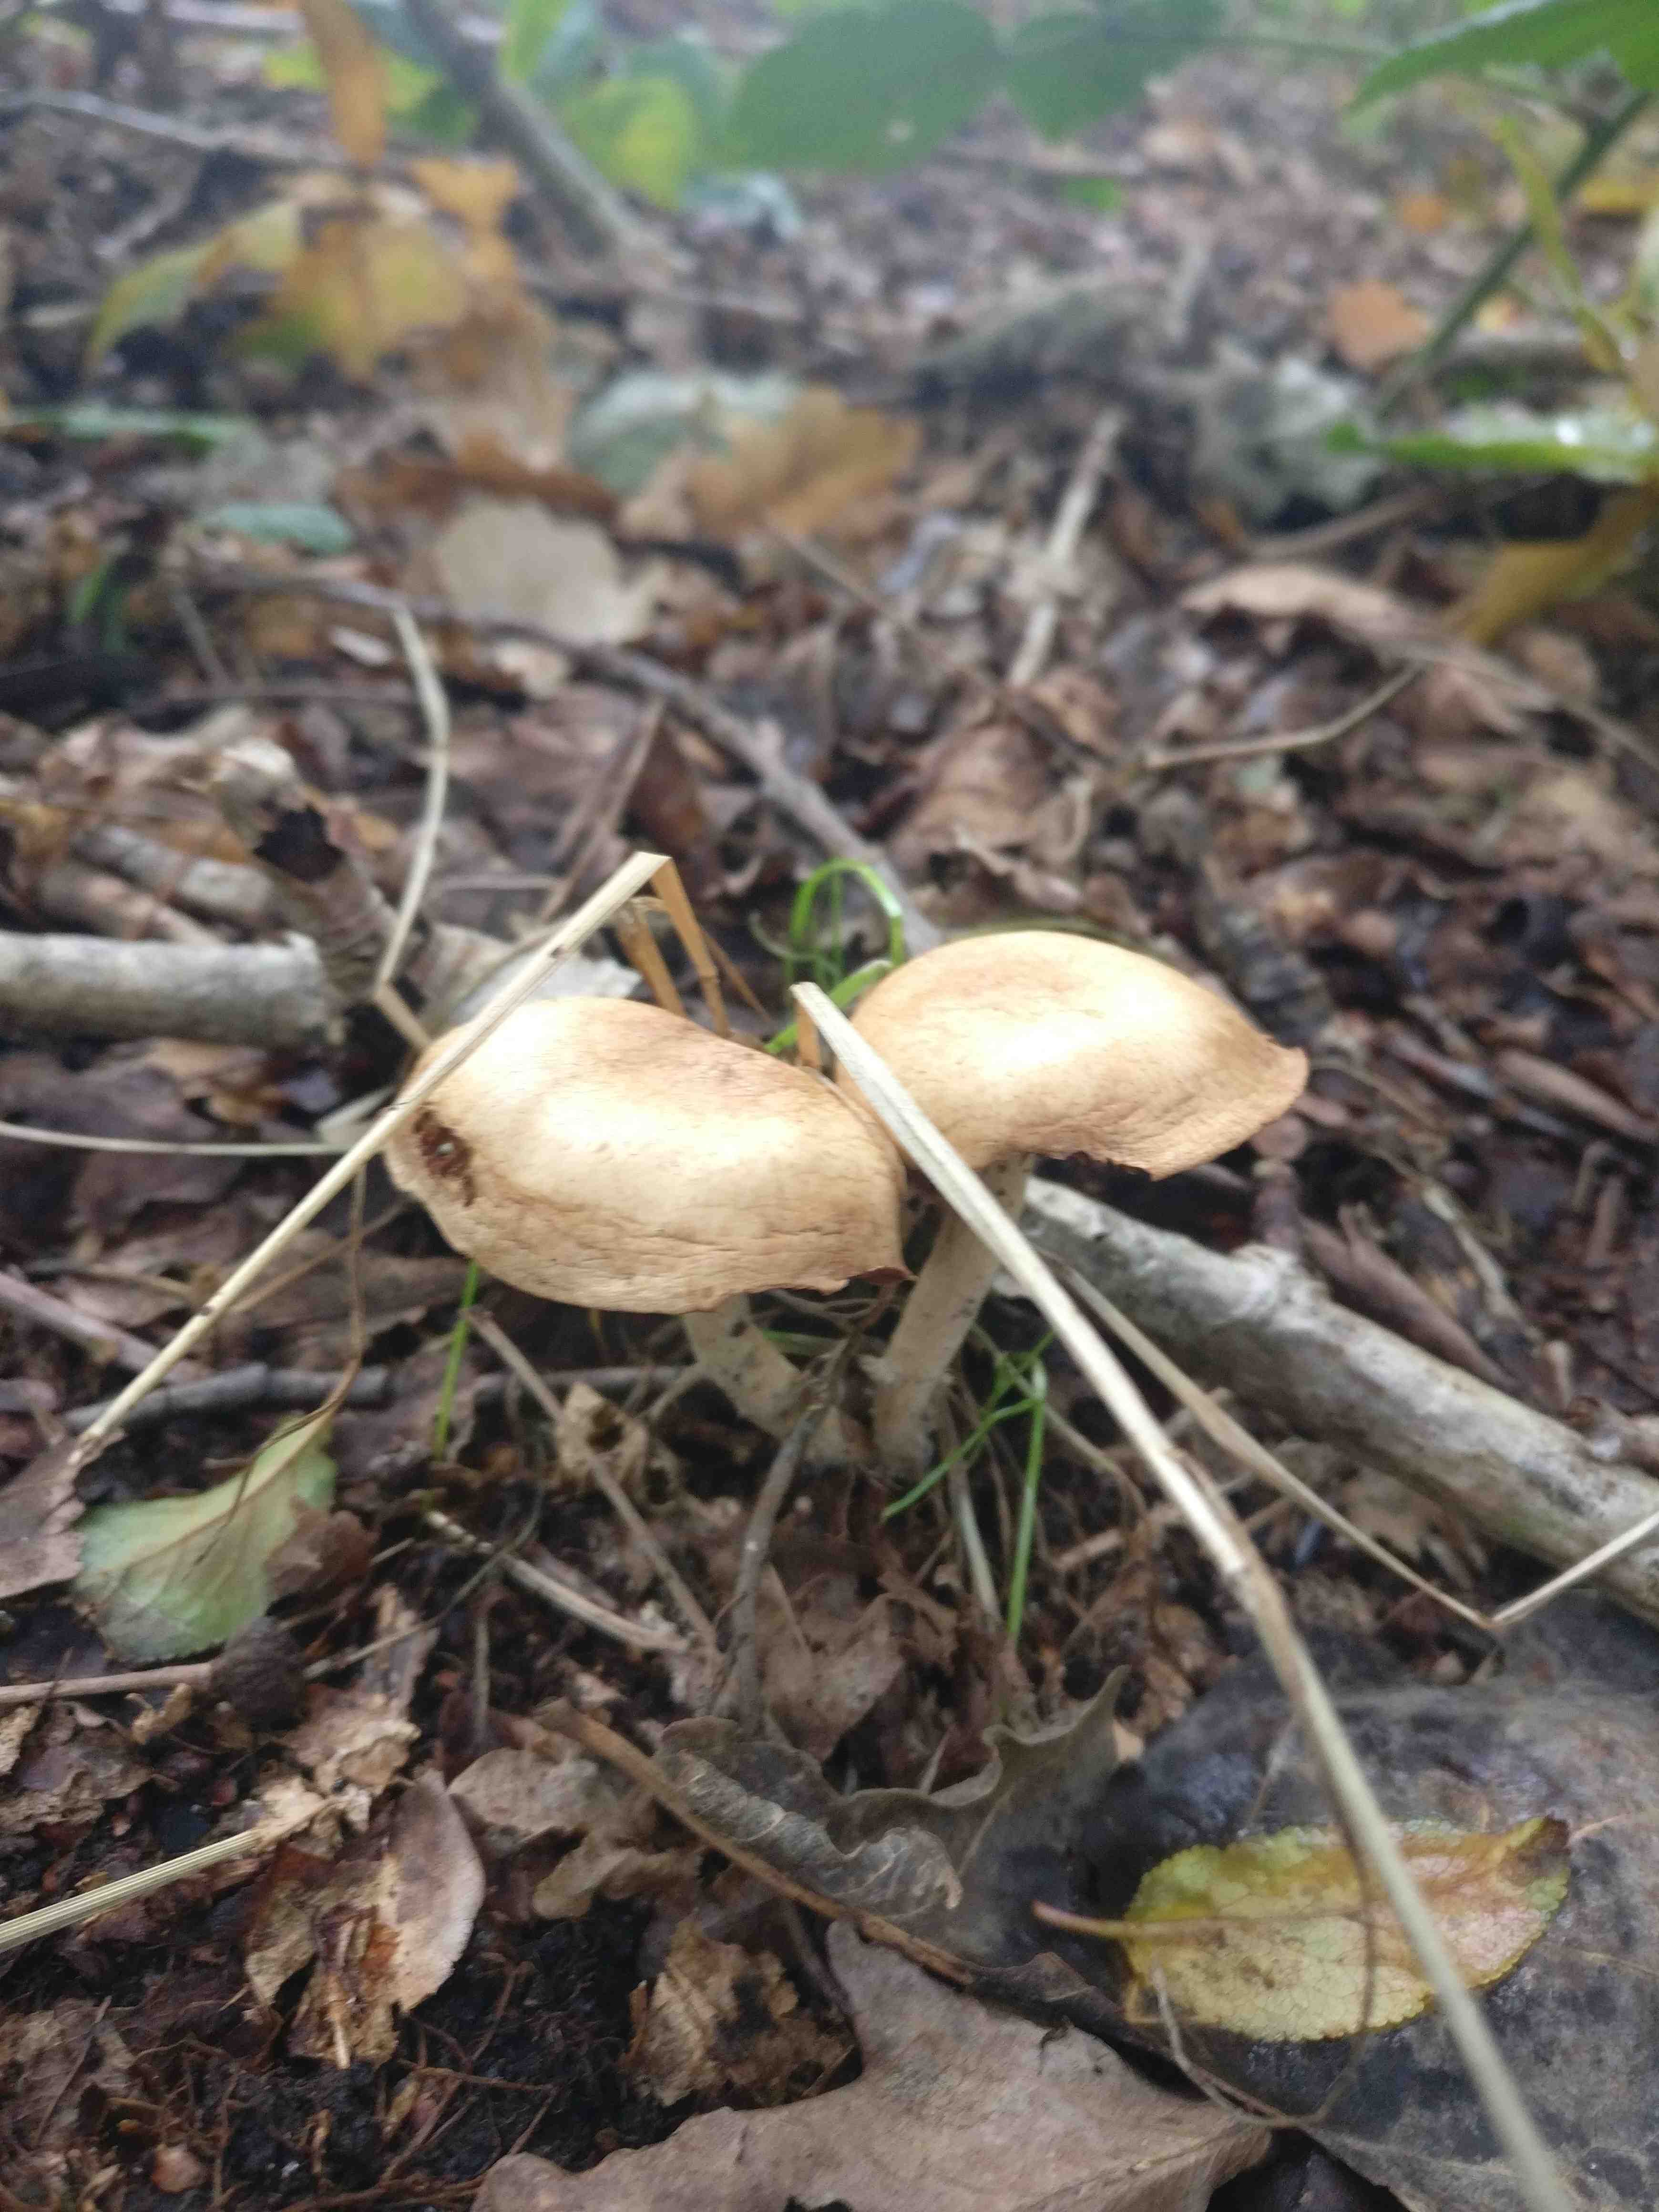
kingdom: Fungi
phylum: Basidiomycota
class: Agaricomycetes
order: Agaricales
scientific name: Agaricales
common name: champignonordenen
